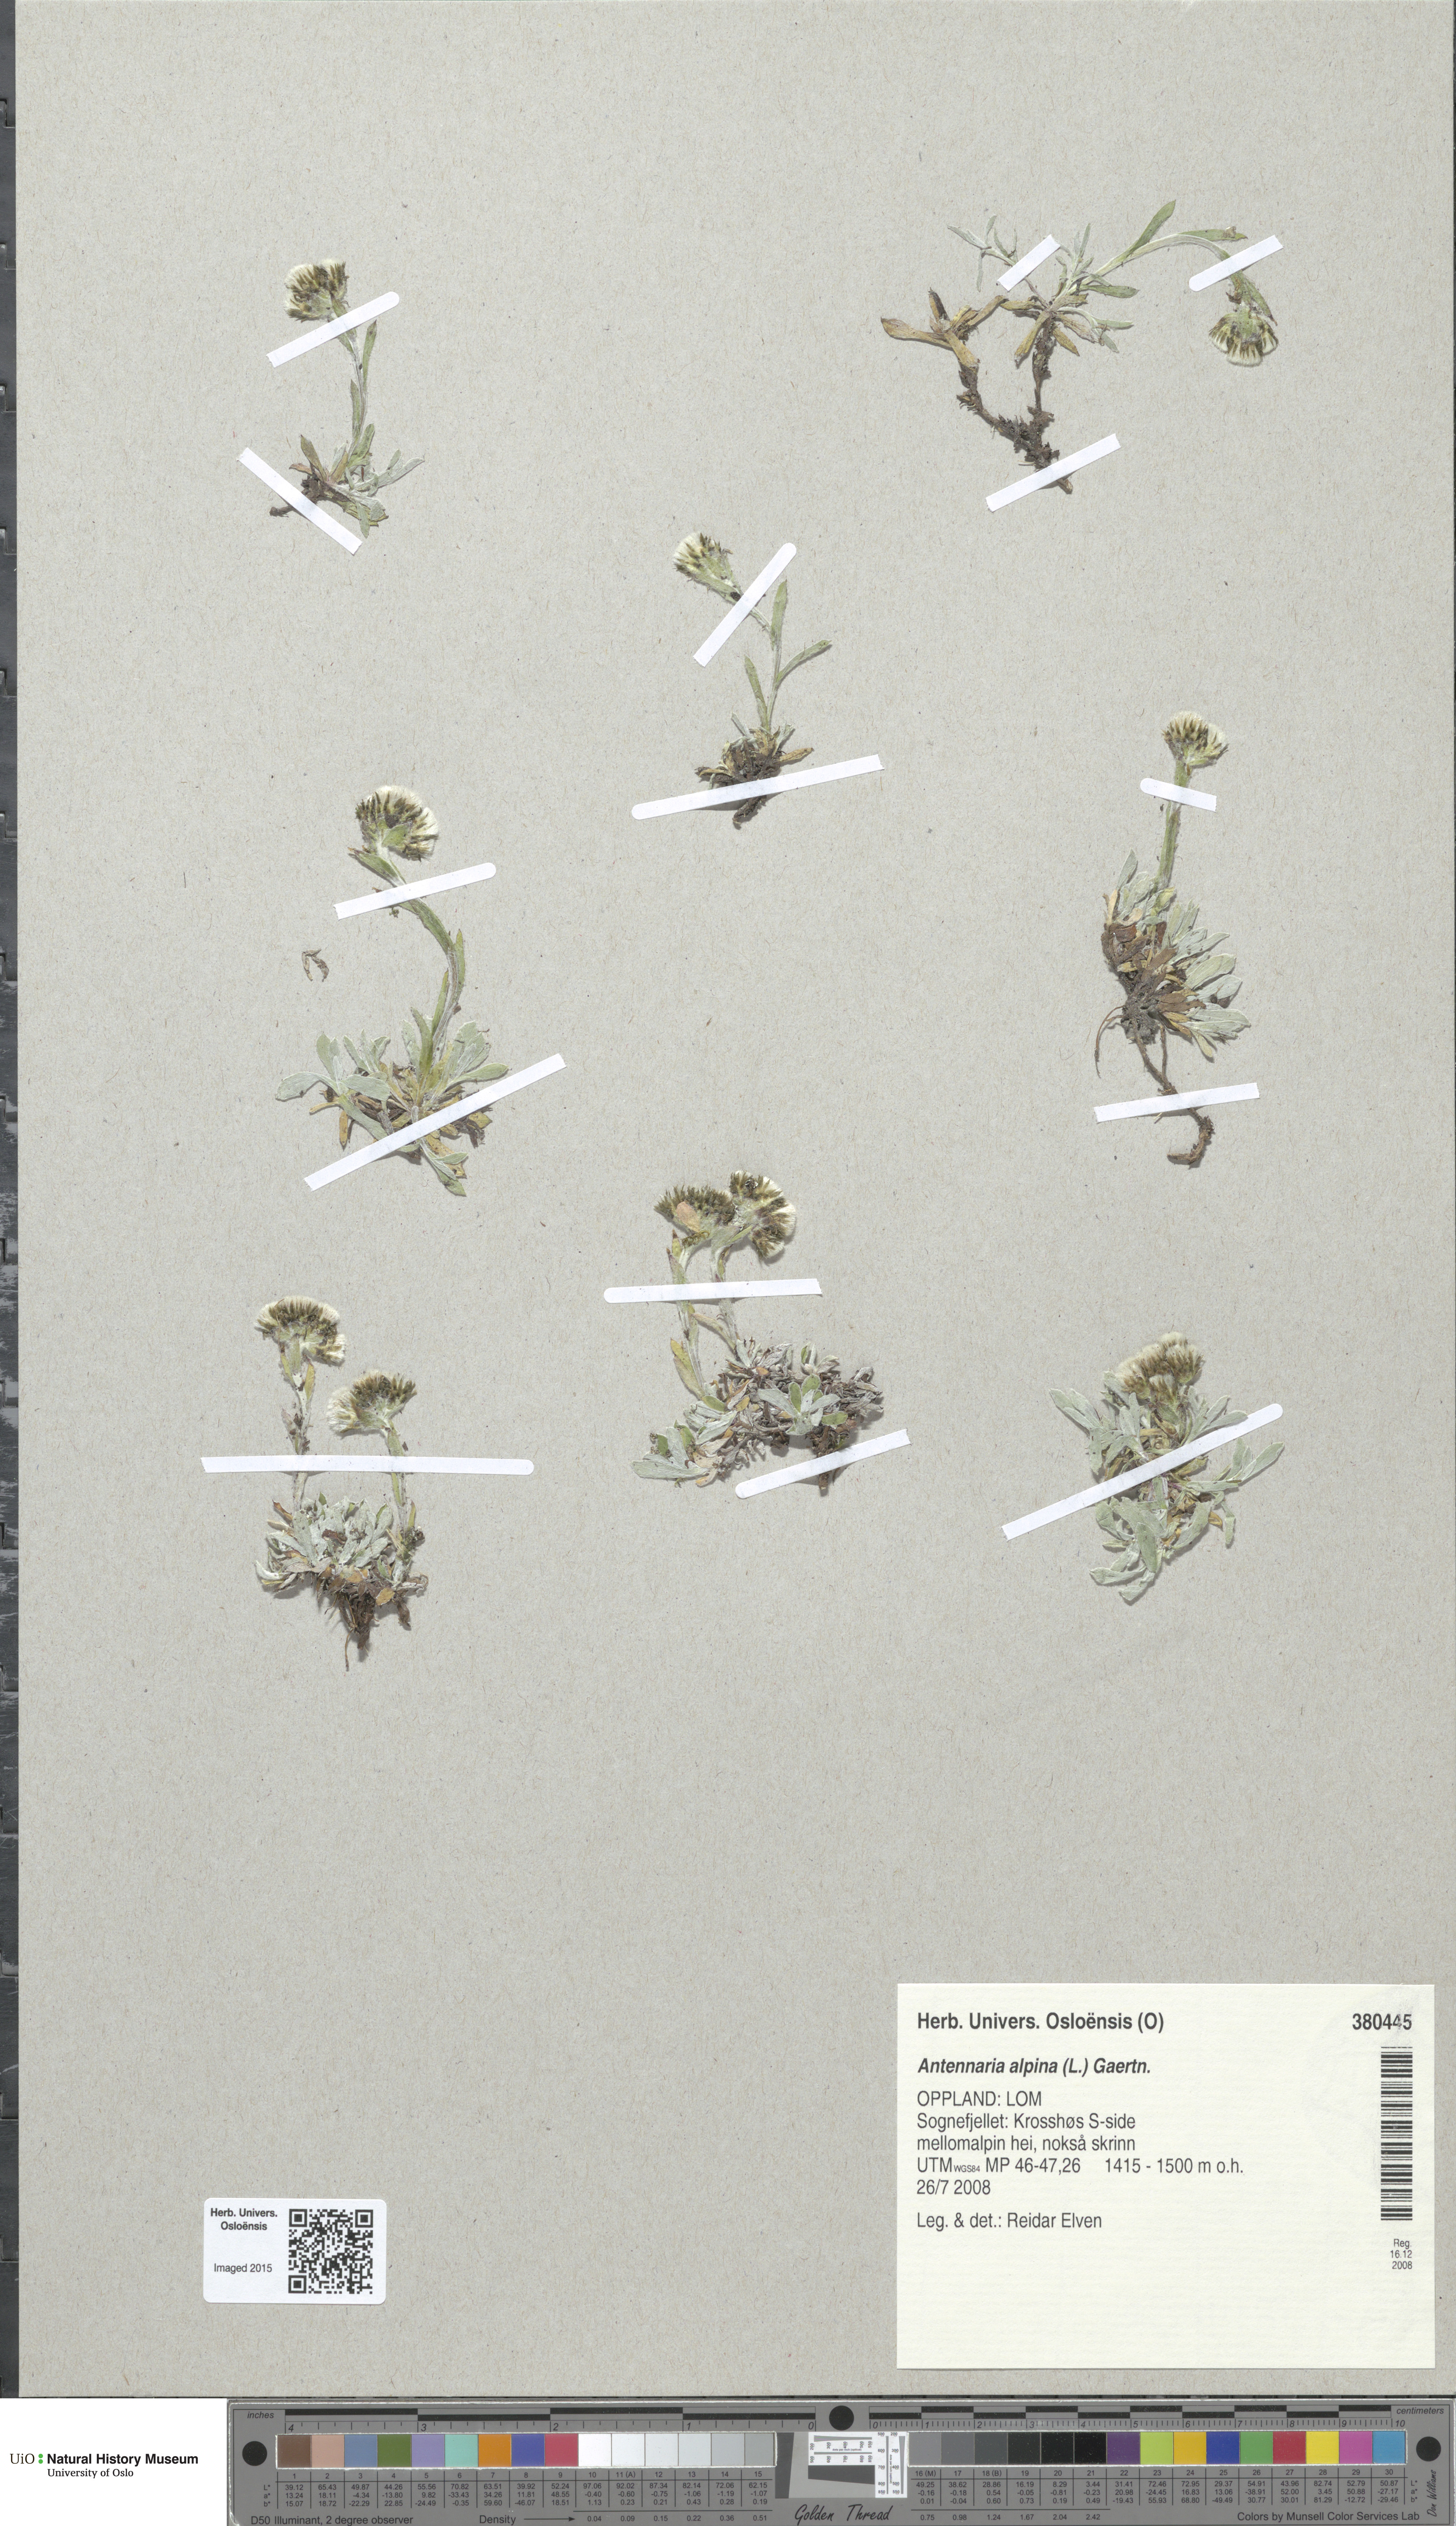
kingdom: Plantae
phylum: Tracheophyta
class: Magnoliopsida
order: Asterales
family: Asteraceae
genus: Antennaria
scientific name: Antennaria alpina
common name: Alpine pussytoes
